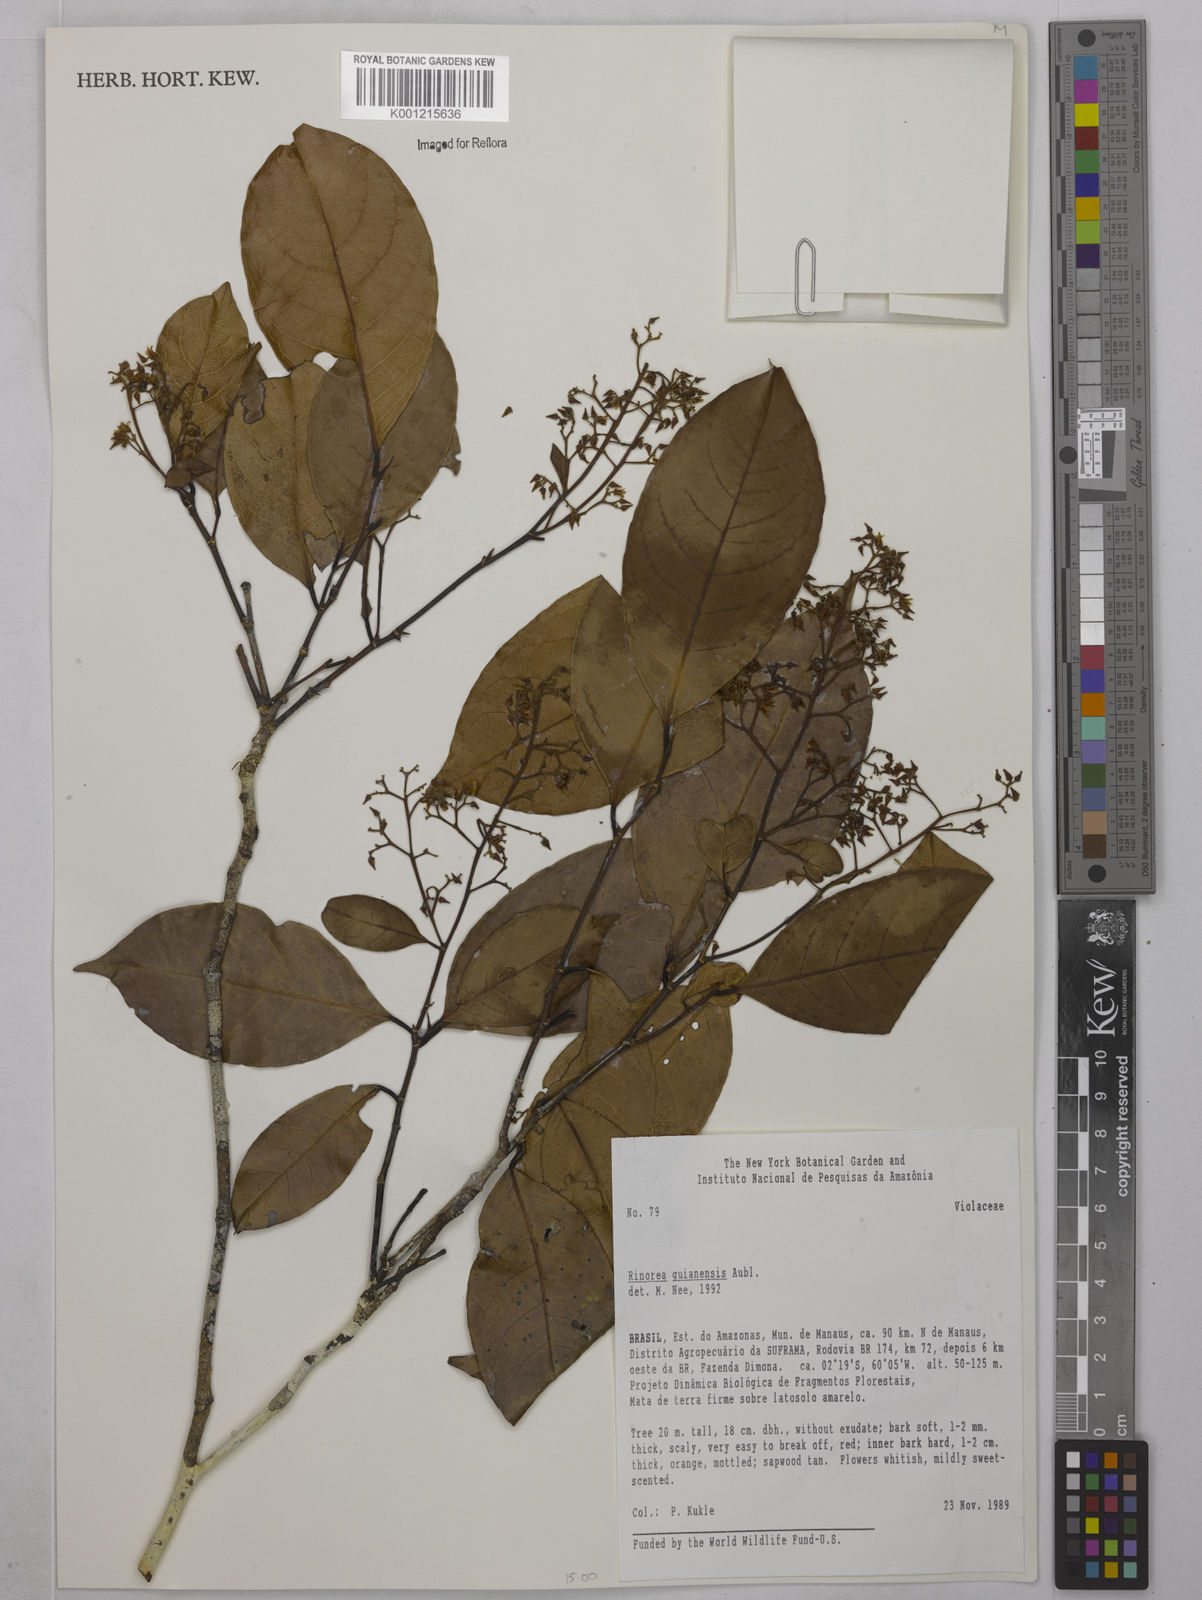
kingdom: Plantae
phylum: Tracheophyta
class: Magnoliopsida
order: Malpighiales
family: Violaceae
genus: Rinorea
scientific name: Rinorea guianensis
